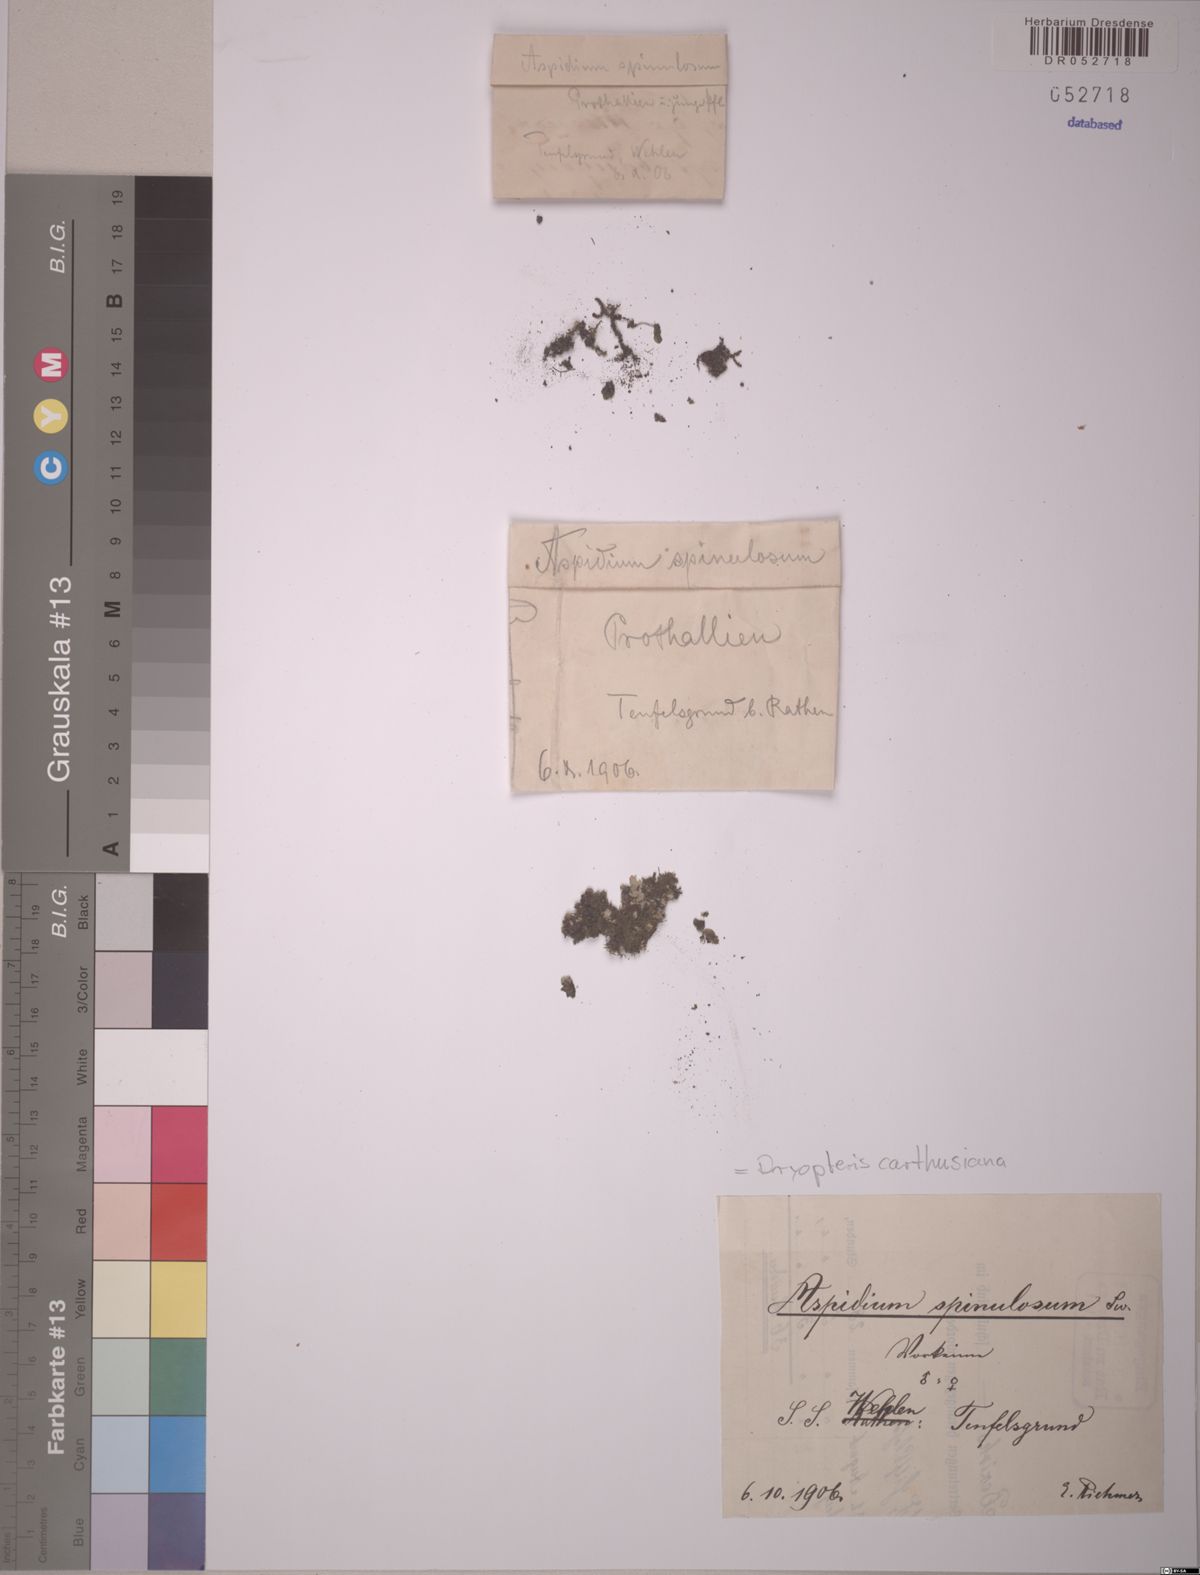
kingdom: Plantae
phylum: Tracheophyta
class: Polypodiopsida
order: Polypodiales
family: Dryopteridaceae
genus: Dryopteris
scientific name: Dryopteris carthusiana
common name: Narrow buckler-fern
